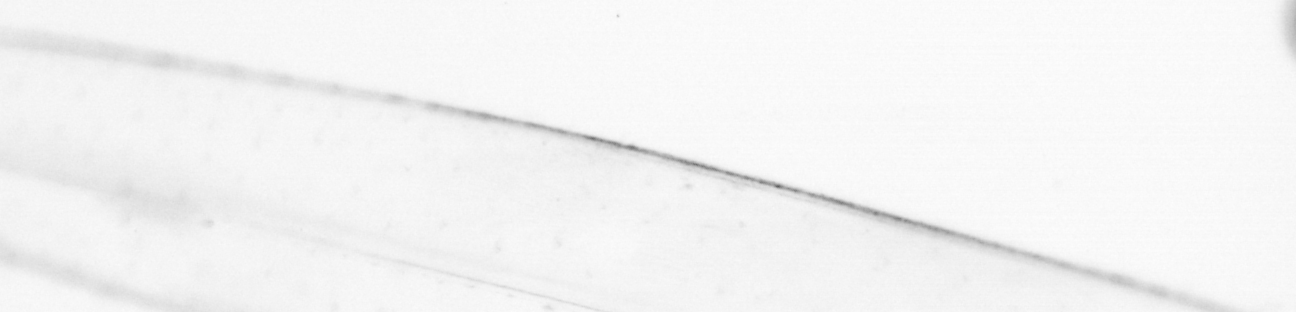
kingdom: Animalia
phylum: Chaetognatha
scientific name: Chaetognatha
